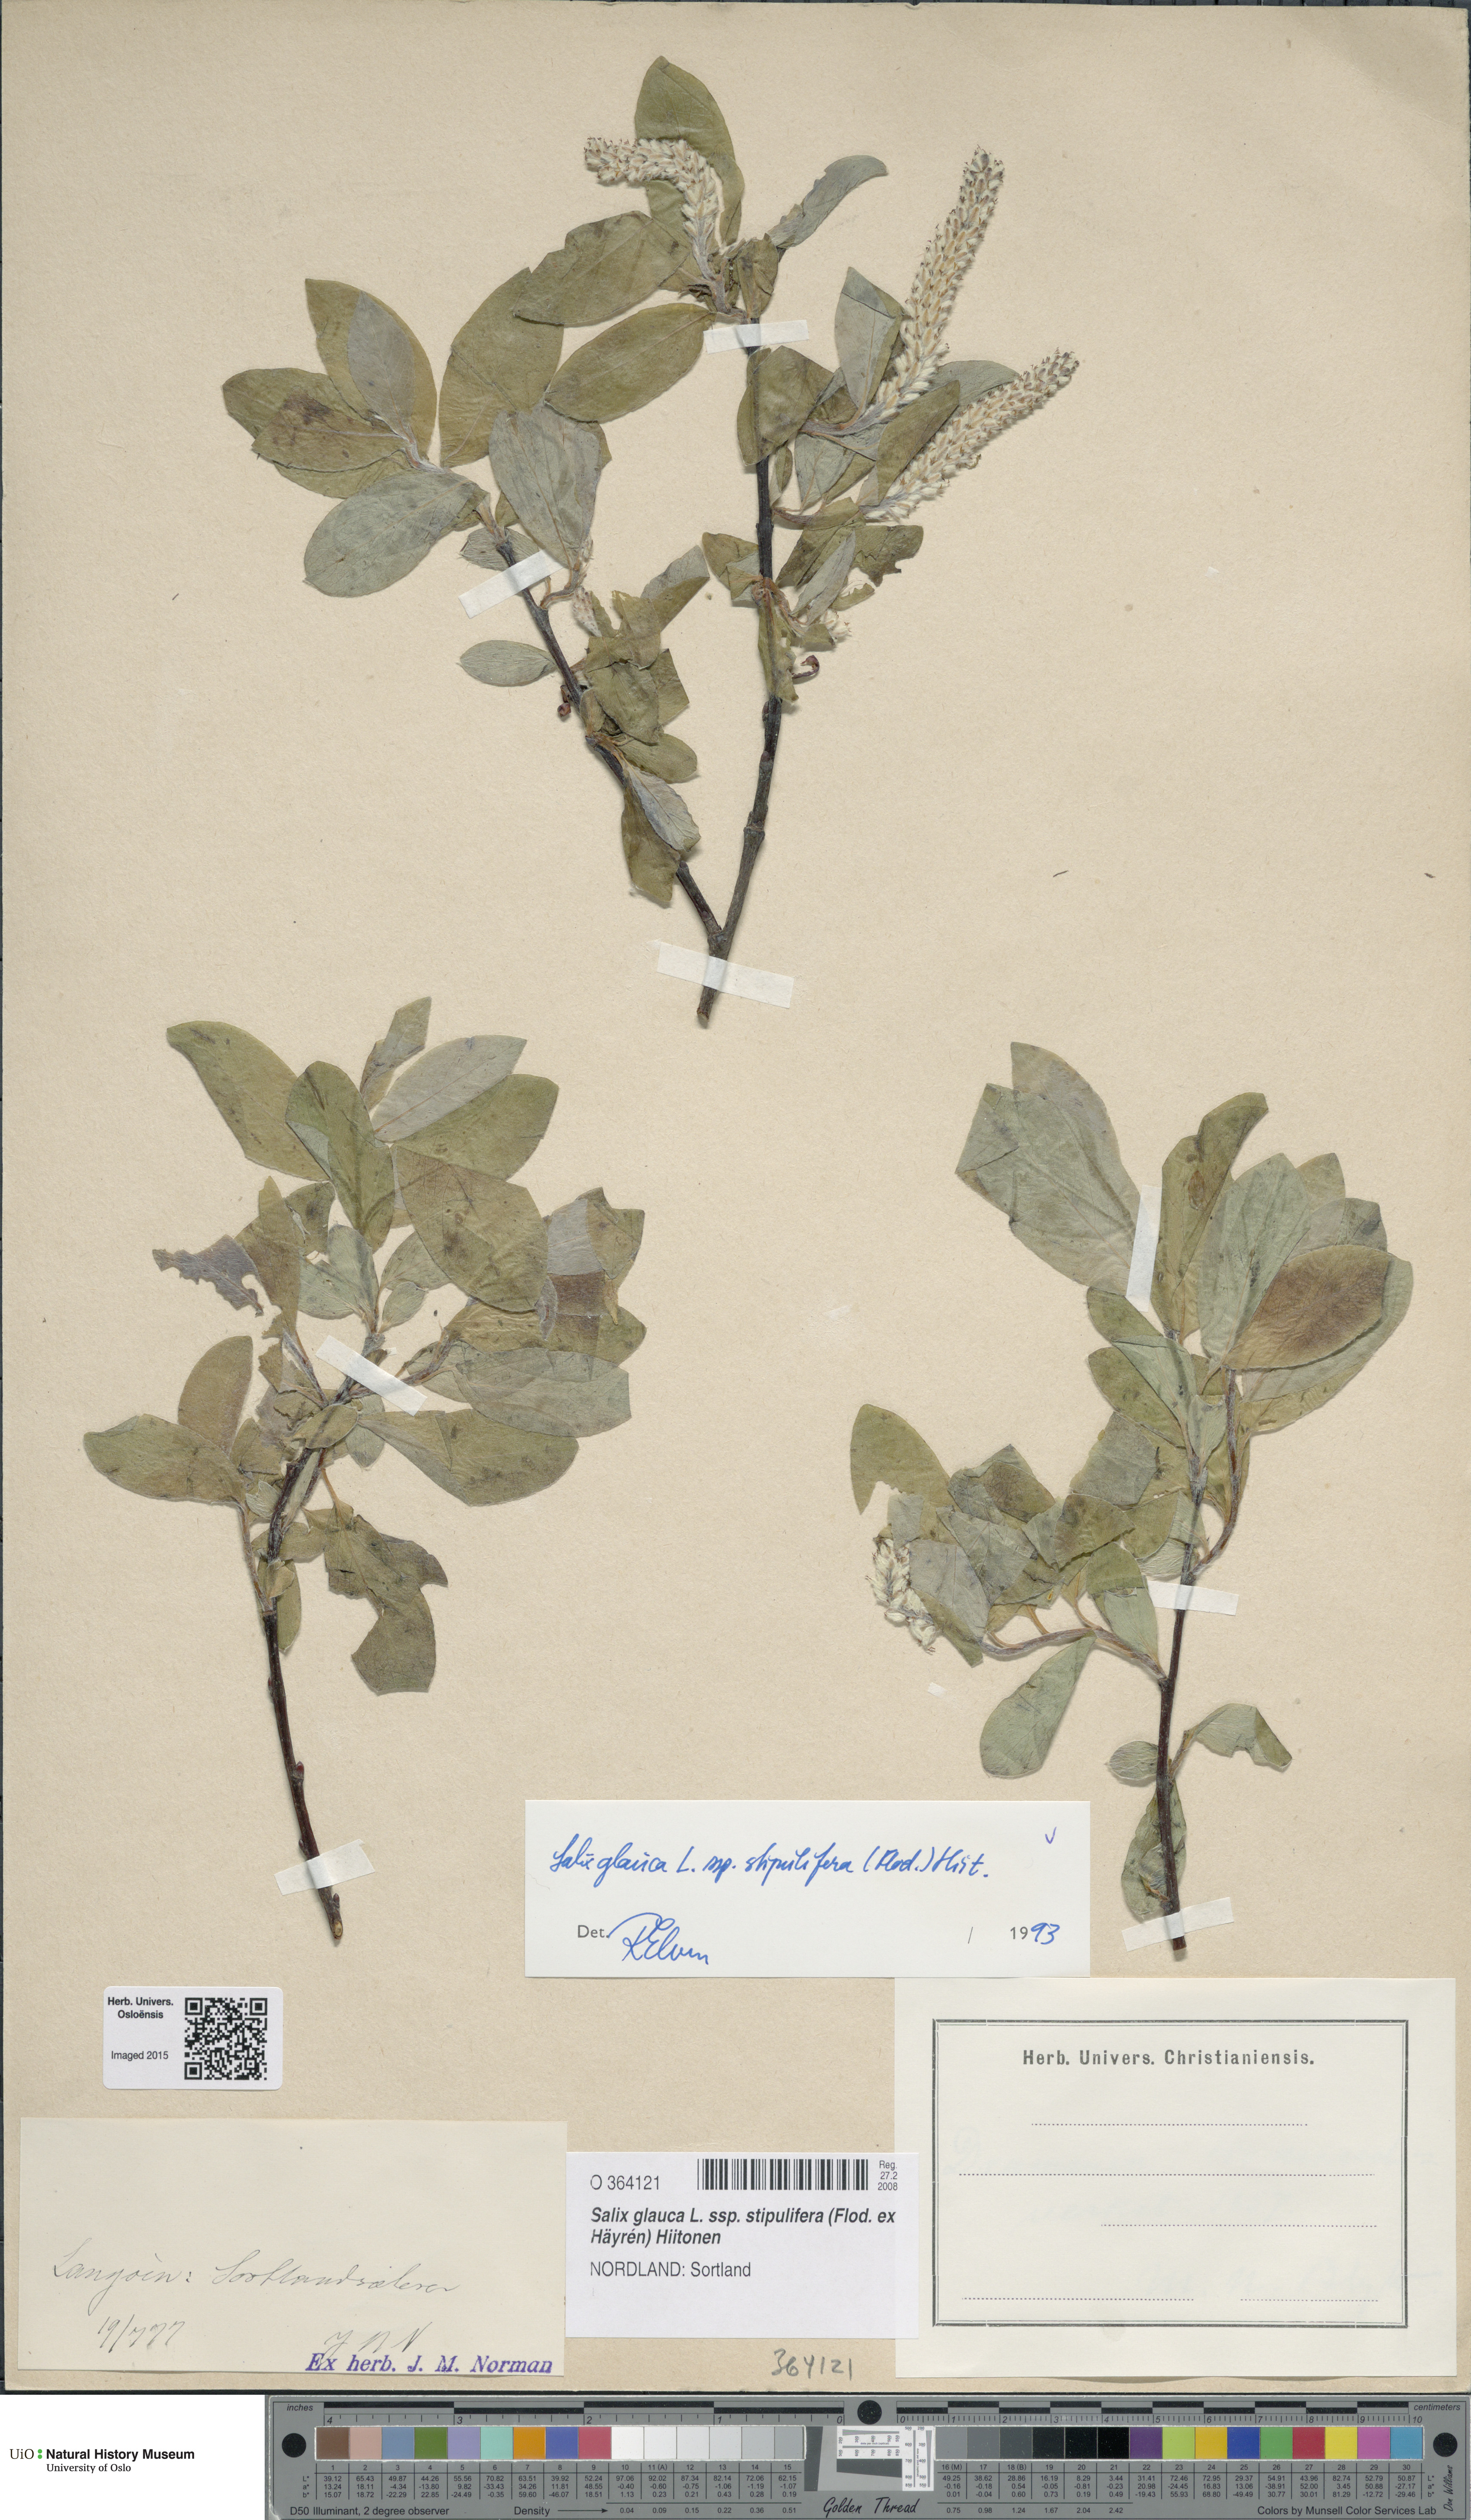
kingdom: Plantae
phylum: Tracheophyta
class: Magnoliopsida
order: Malpighiales
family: Salicaceae
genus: Salix
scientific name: Salix glauca
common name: Glaucous willow
